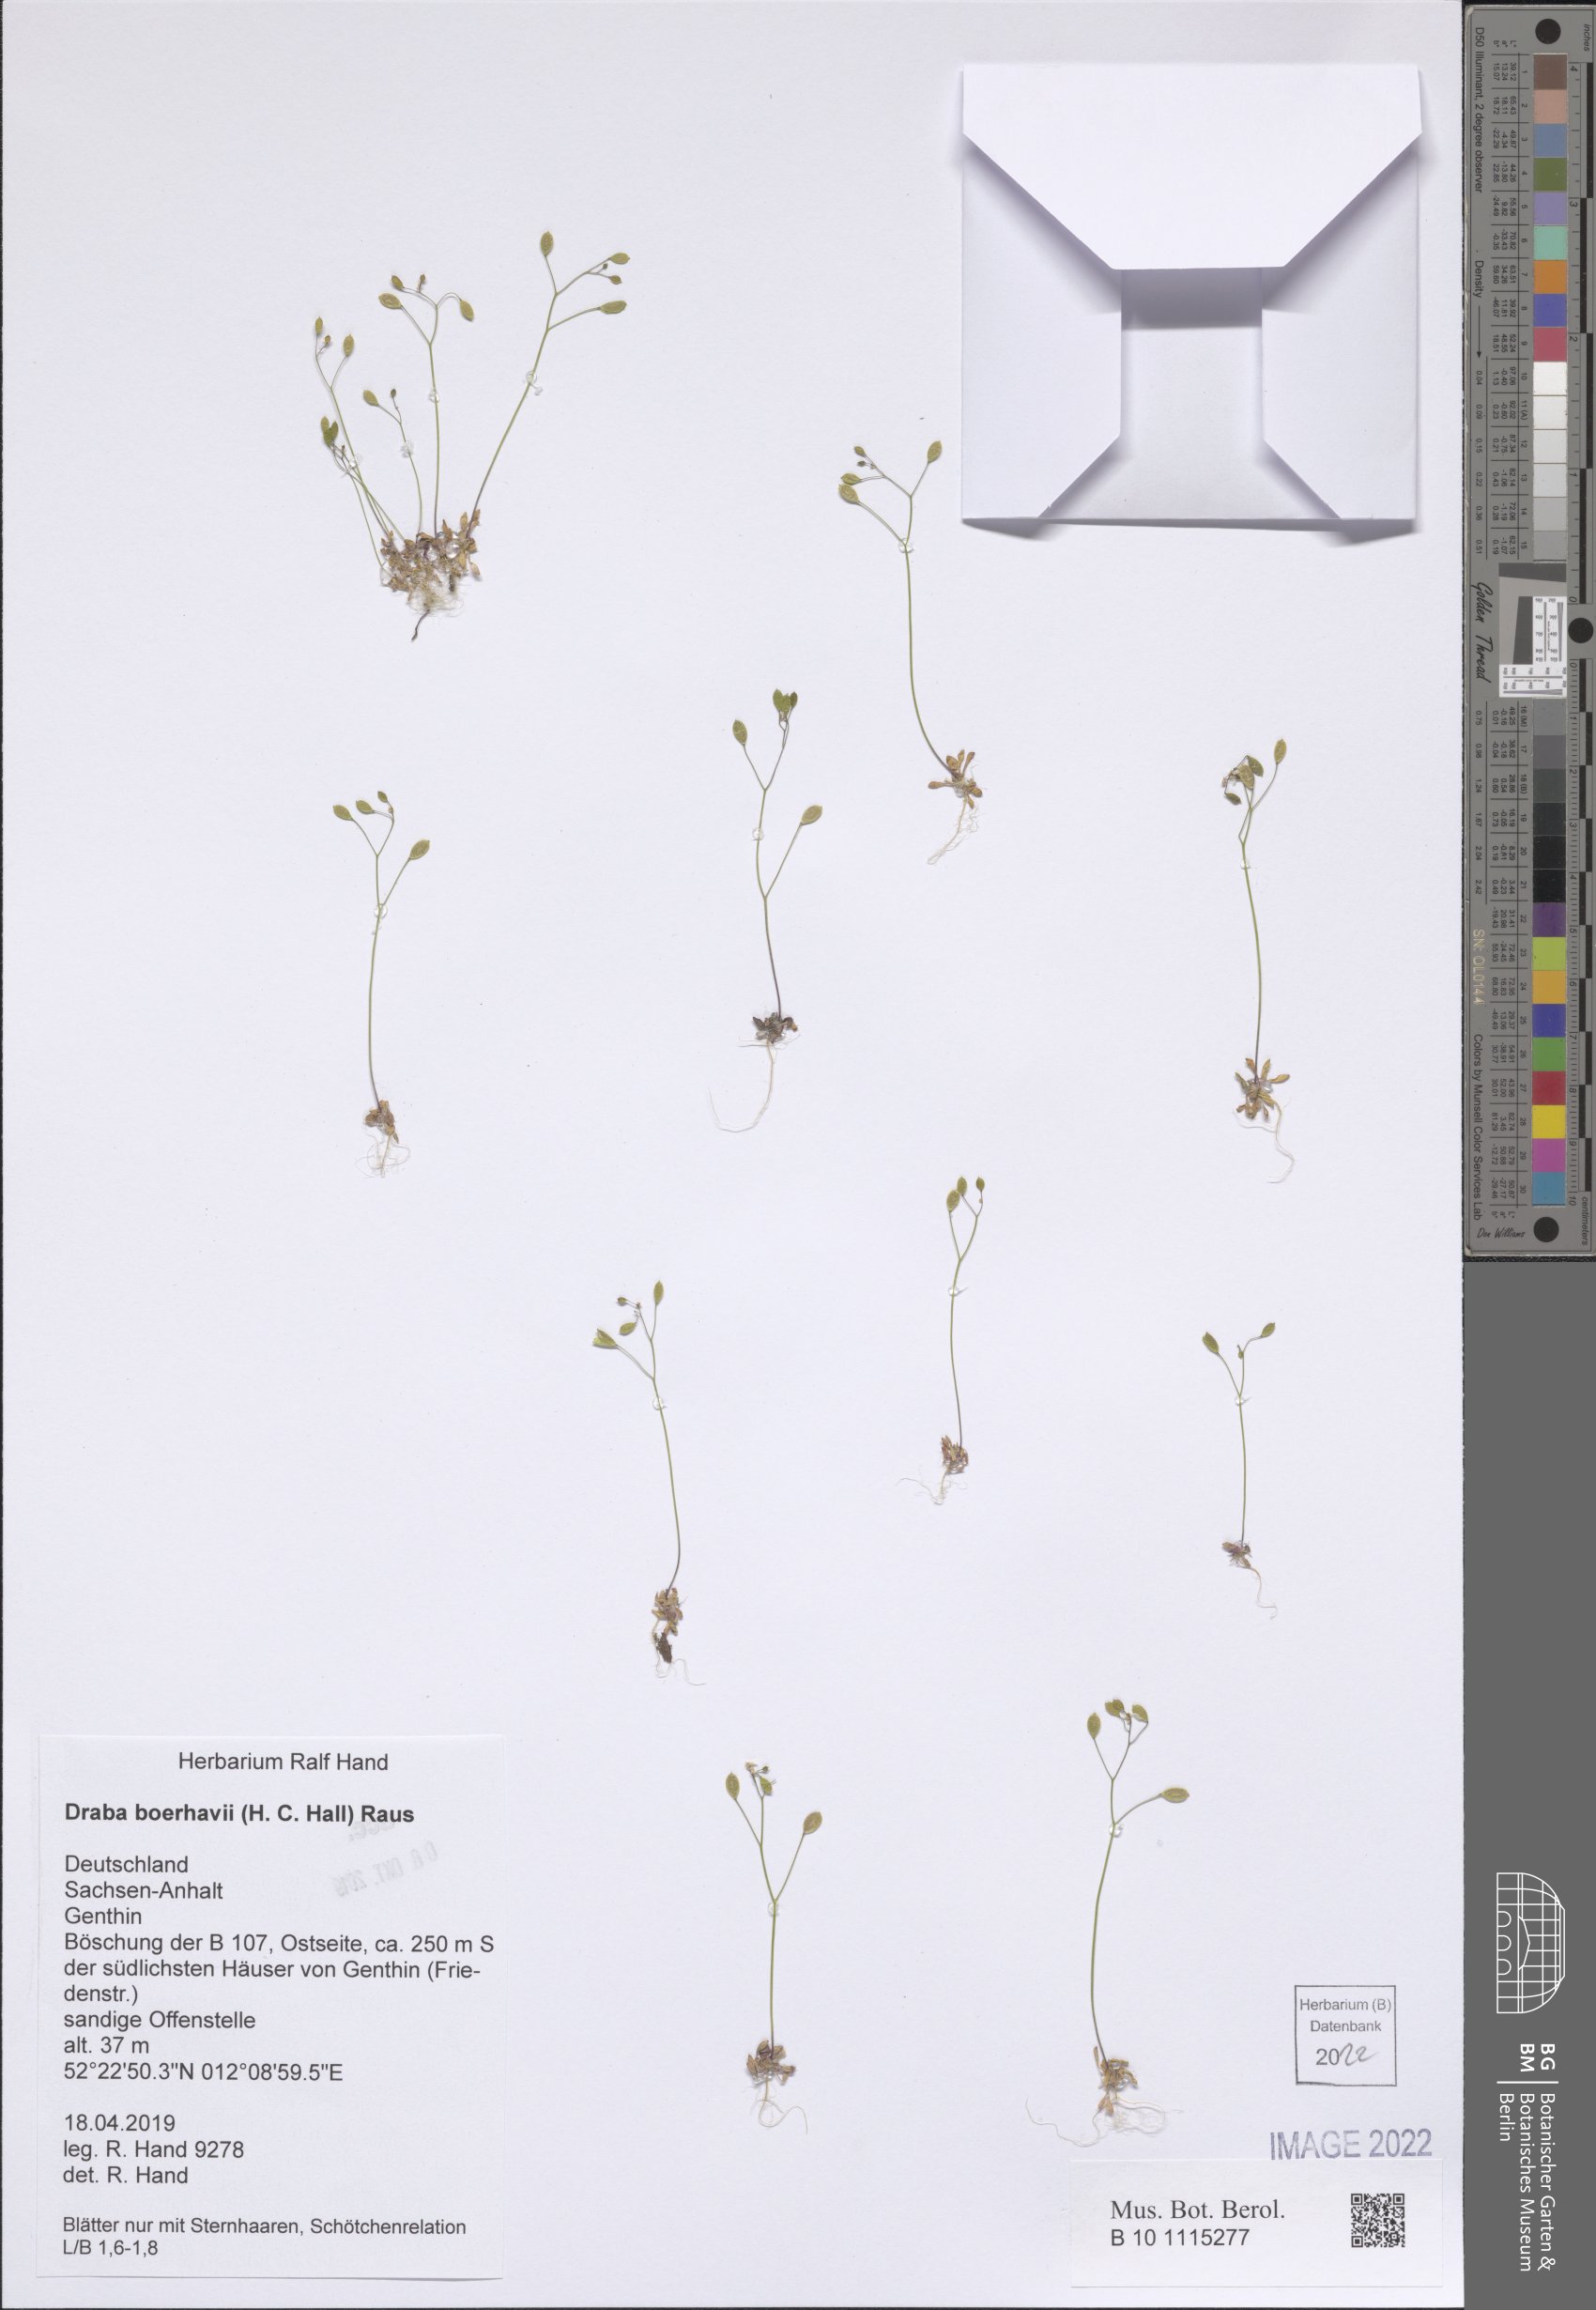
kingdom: Plantae
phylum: Tracheophyta
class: Magnoliopsida
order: Brassicales
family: Brassicaceae
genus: Draba
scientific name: Draba verna
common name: Spring draba
